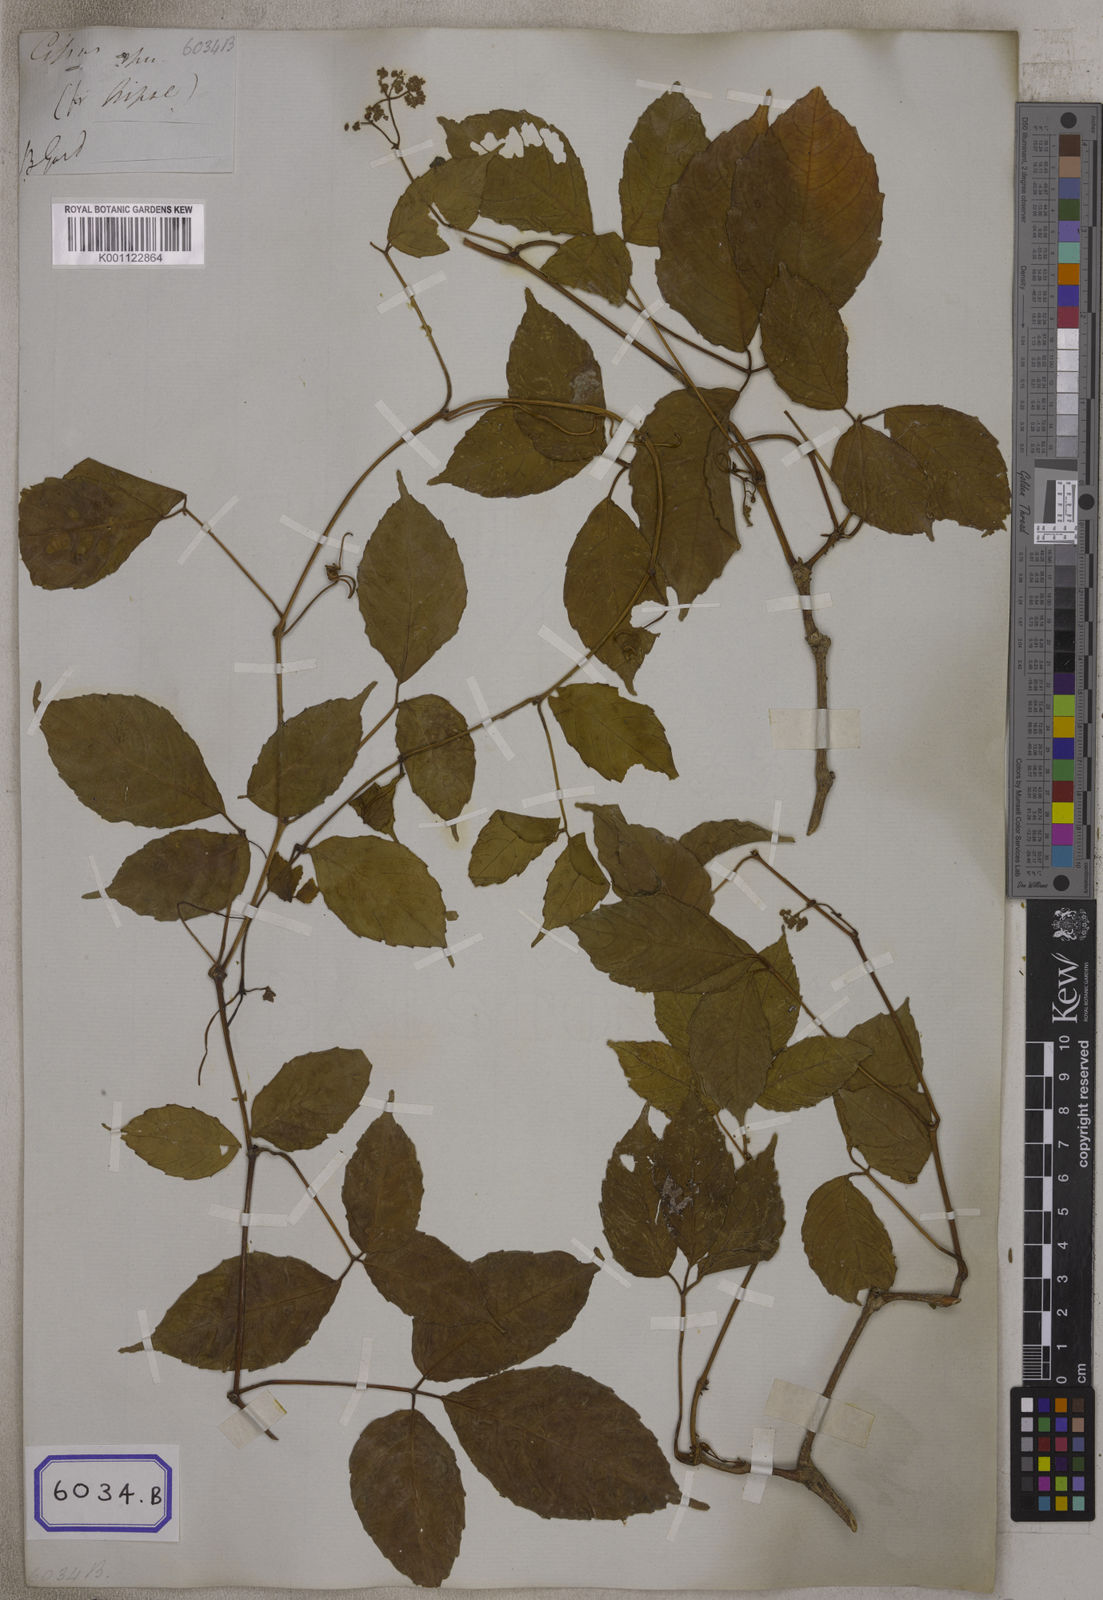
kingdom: Plantae
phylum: Tracheophyta
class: Magnoliopsida
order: Vitales
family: Vitaceae
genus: Tetrastigma
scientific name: Tetrastigma serrulatum
